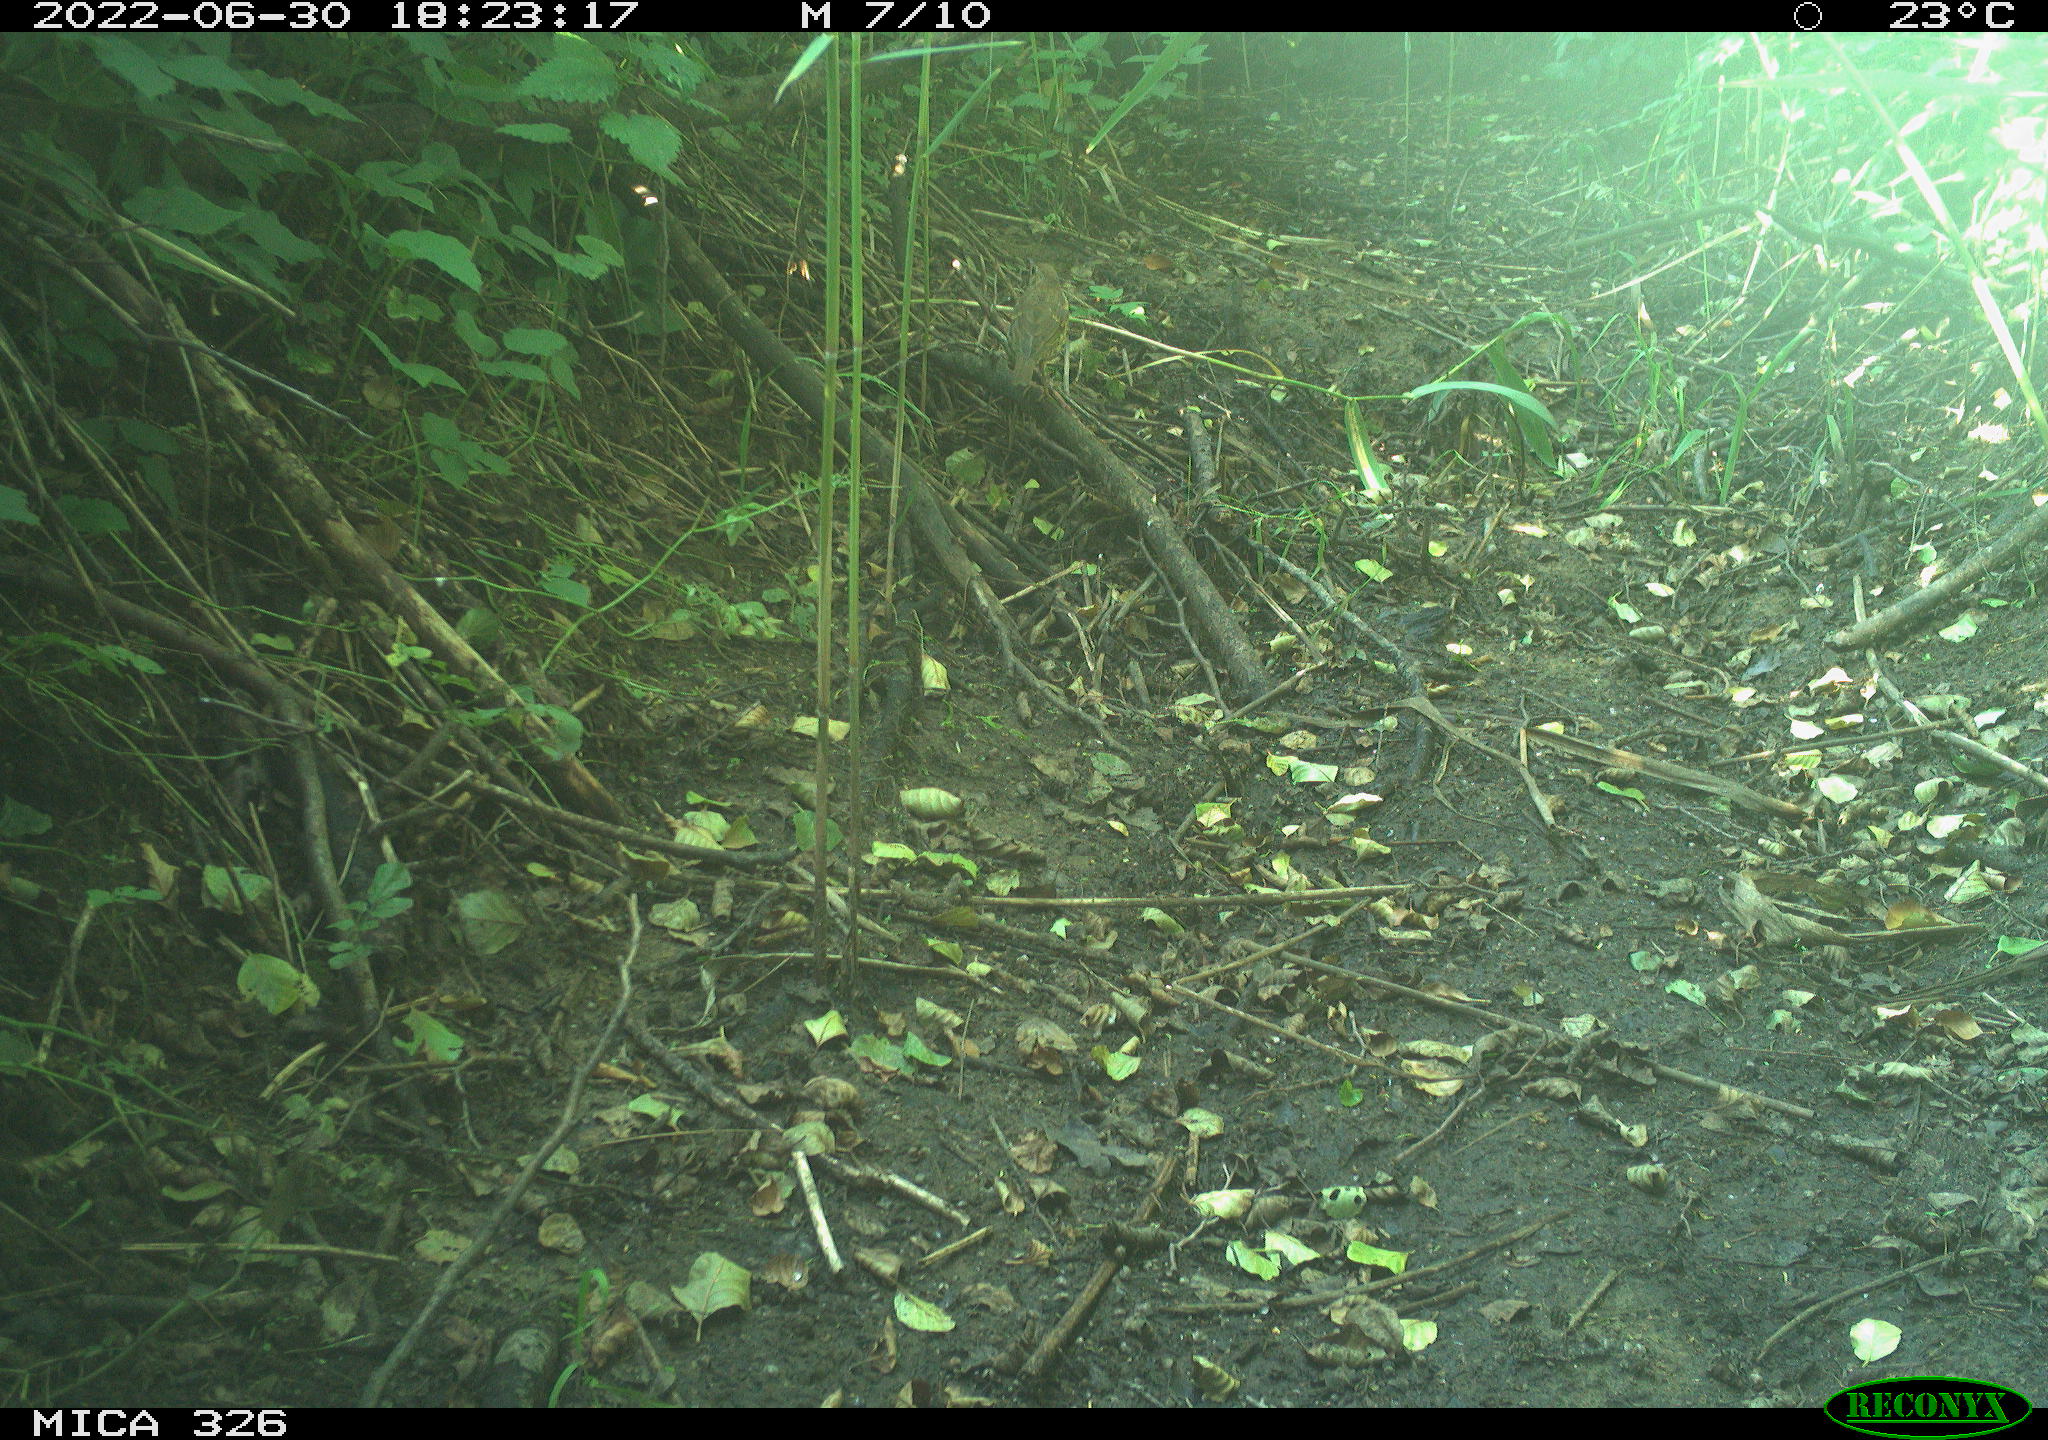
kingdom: Animalia
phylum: Chordata
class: Aves
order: Passeriformes
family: Turdidae
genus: Turdus
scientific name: Turdus
